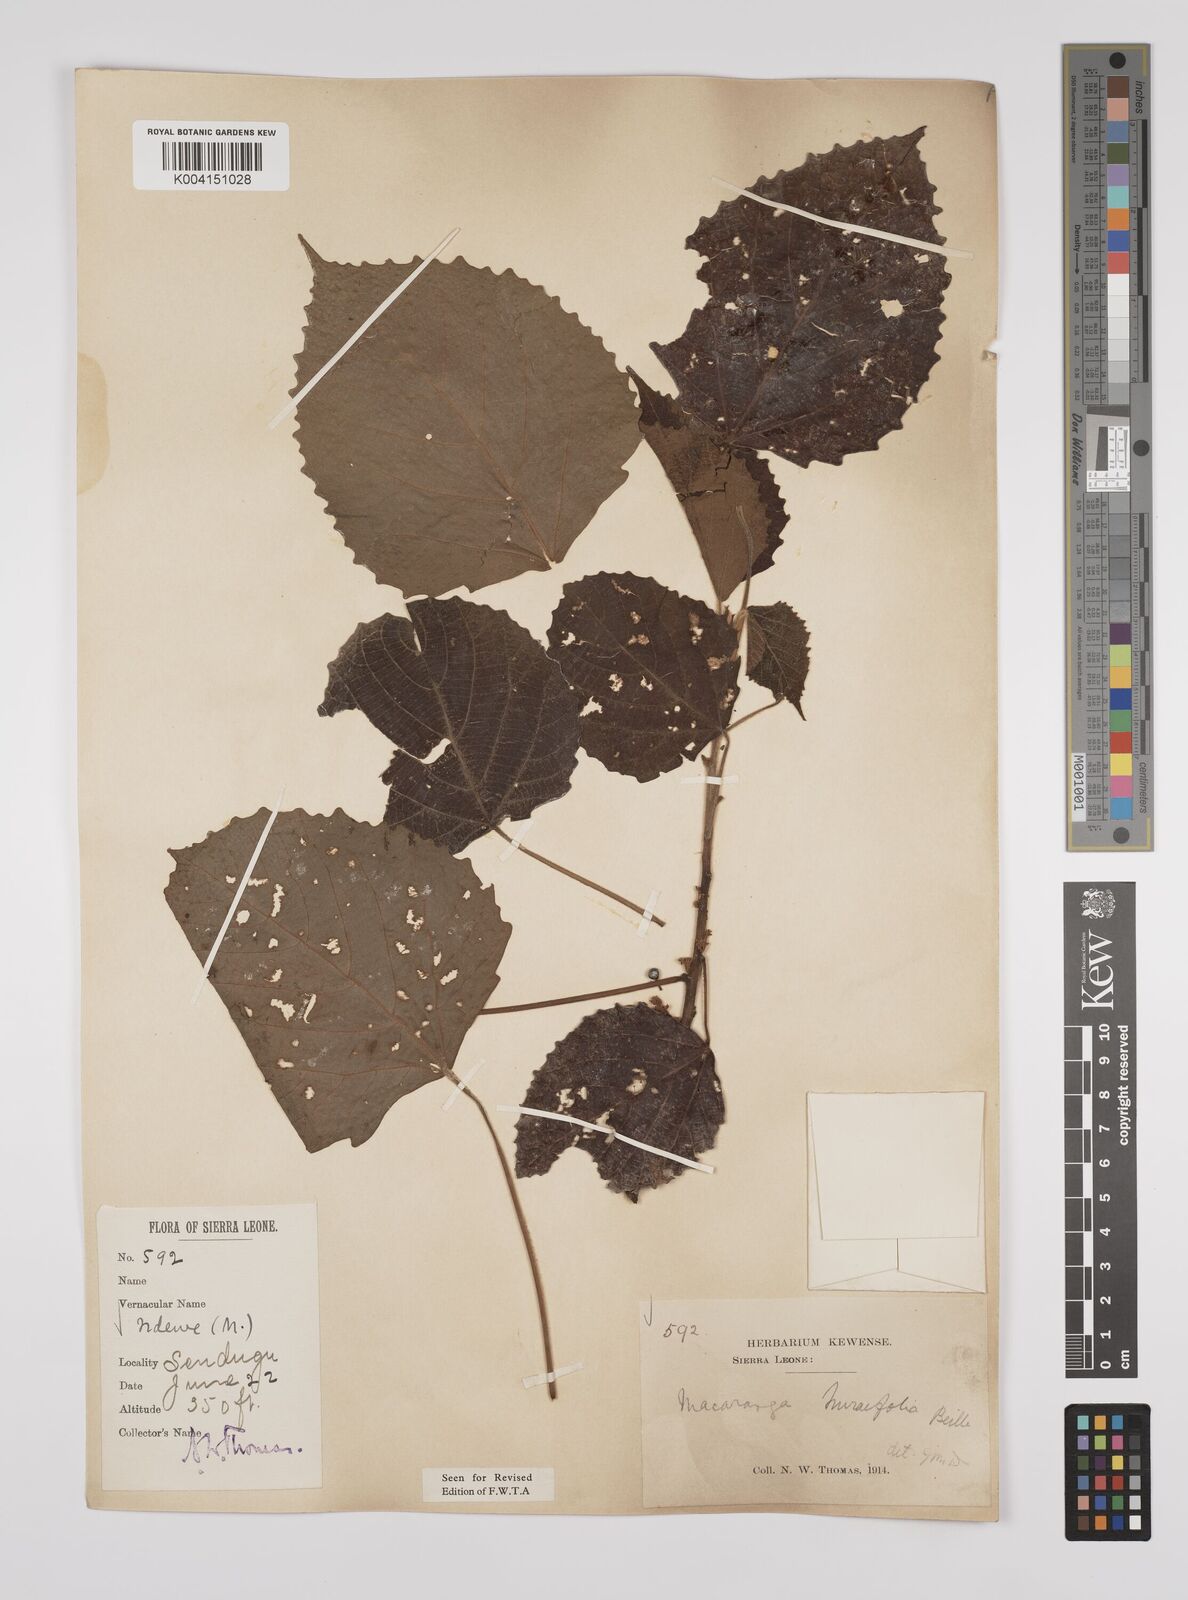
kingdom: Plantae
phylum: Tracheophyta
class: Magnoliopsida
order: Malpighiales
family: Euphorbiaceae
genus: Macaranga
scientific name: Macaranga hurifolia
